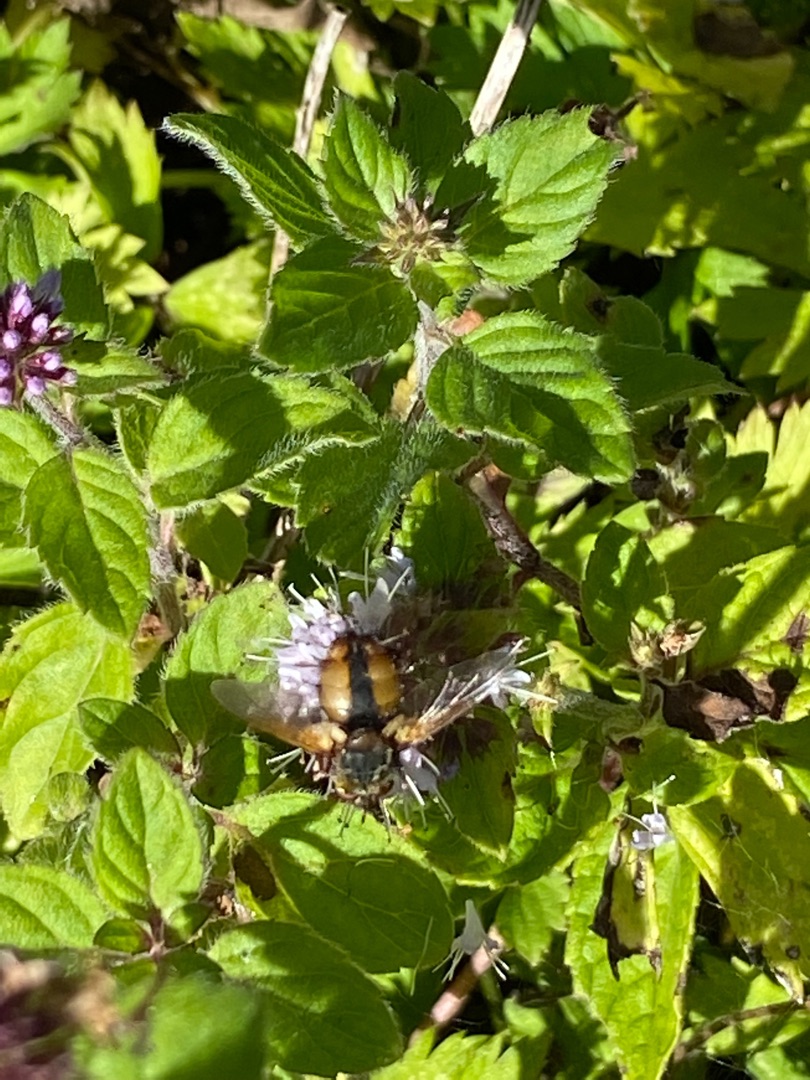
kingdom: Animalia
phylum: Arthropoda
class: Insecta
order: Diptera
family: Tachinidae
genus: Tachina
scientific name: Tachina fera
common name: Mellemfluen oskar
